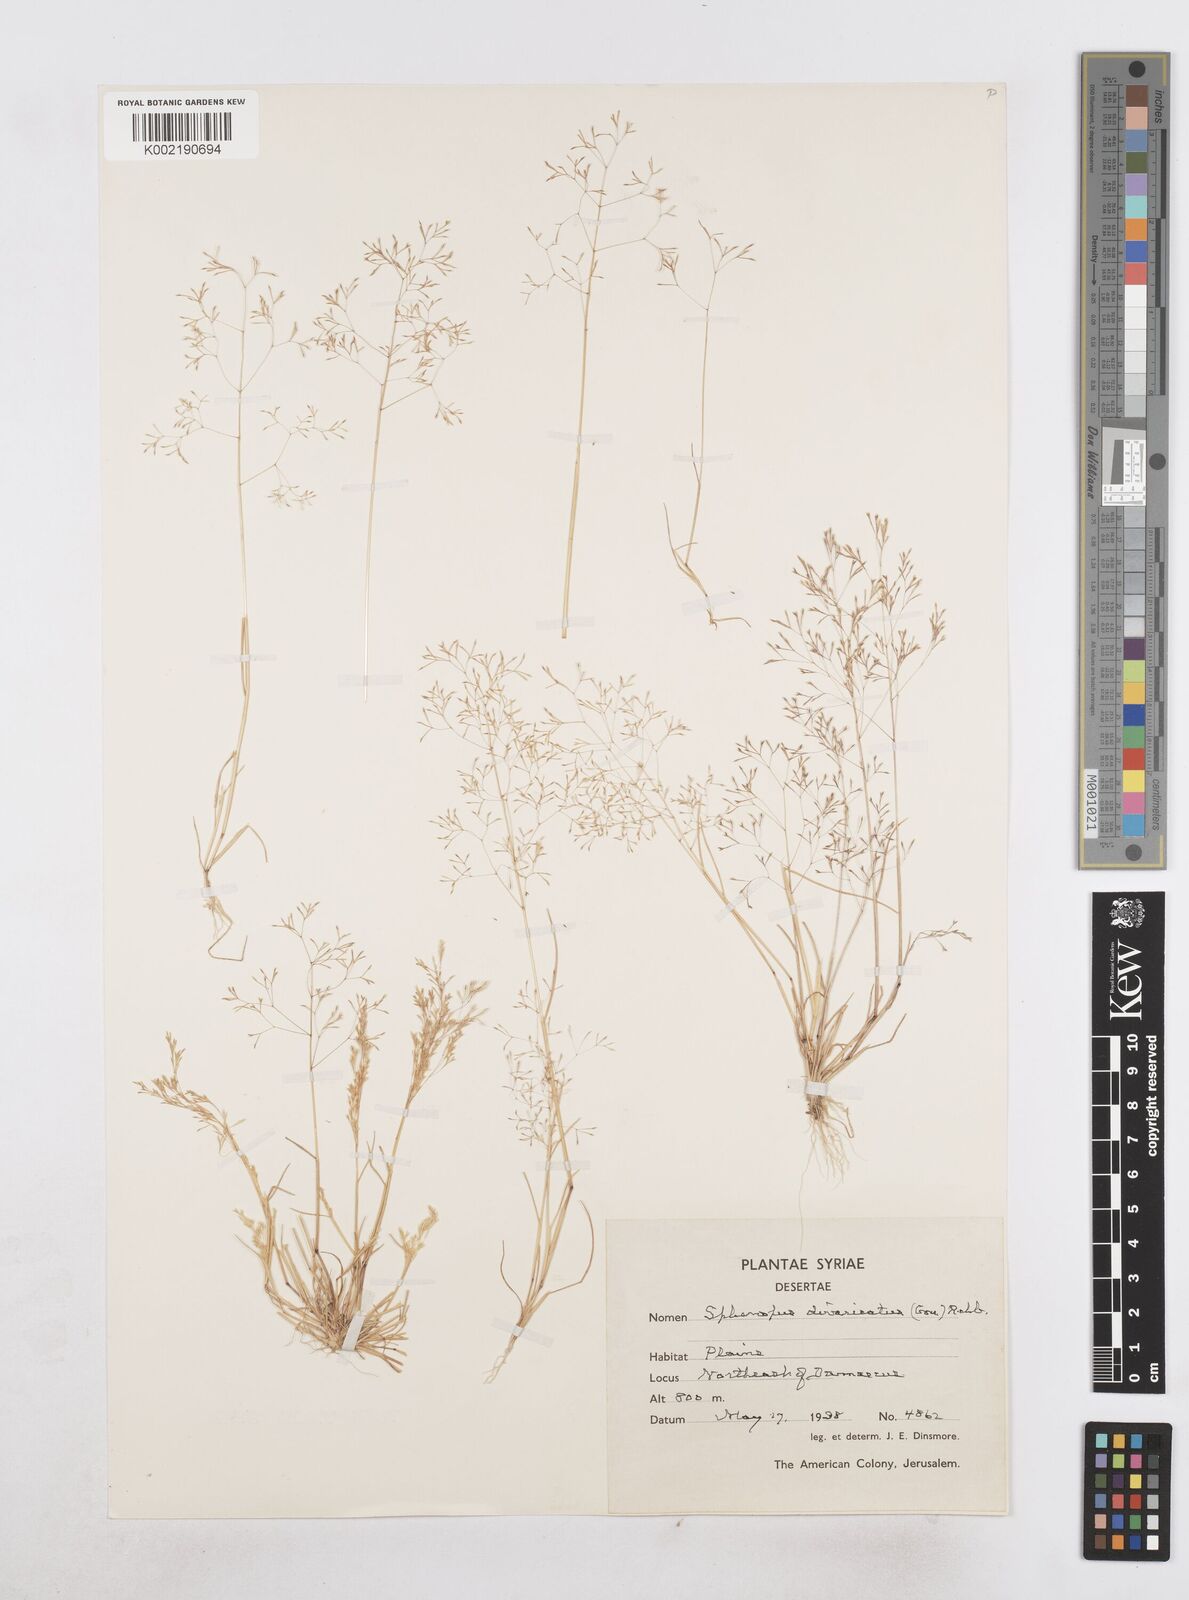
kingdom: Plantae
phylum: Tracheophyta
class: Liliopsida
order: Poales
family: Poaceae
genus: Sphenopus
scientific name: Sphenopus divaricatus
